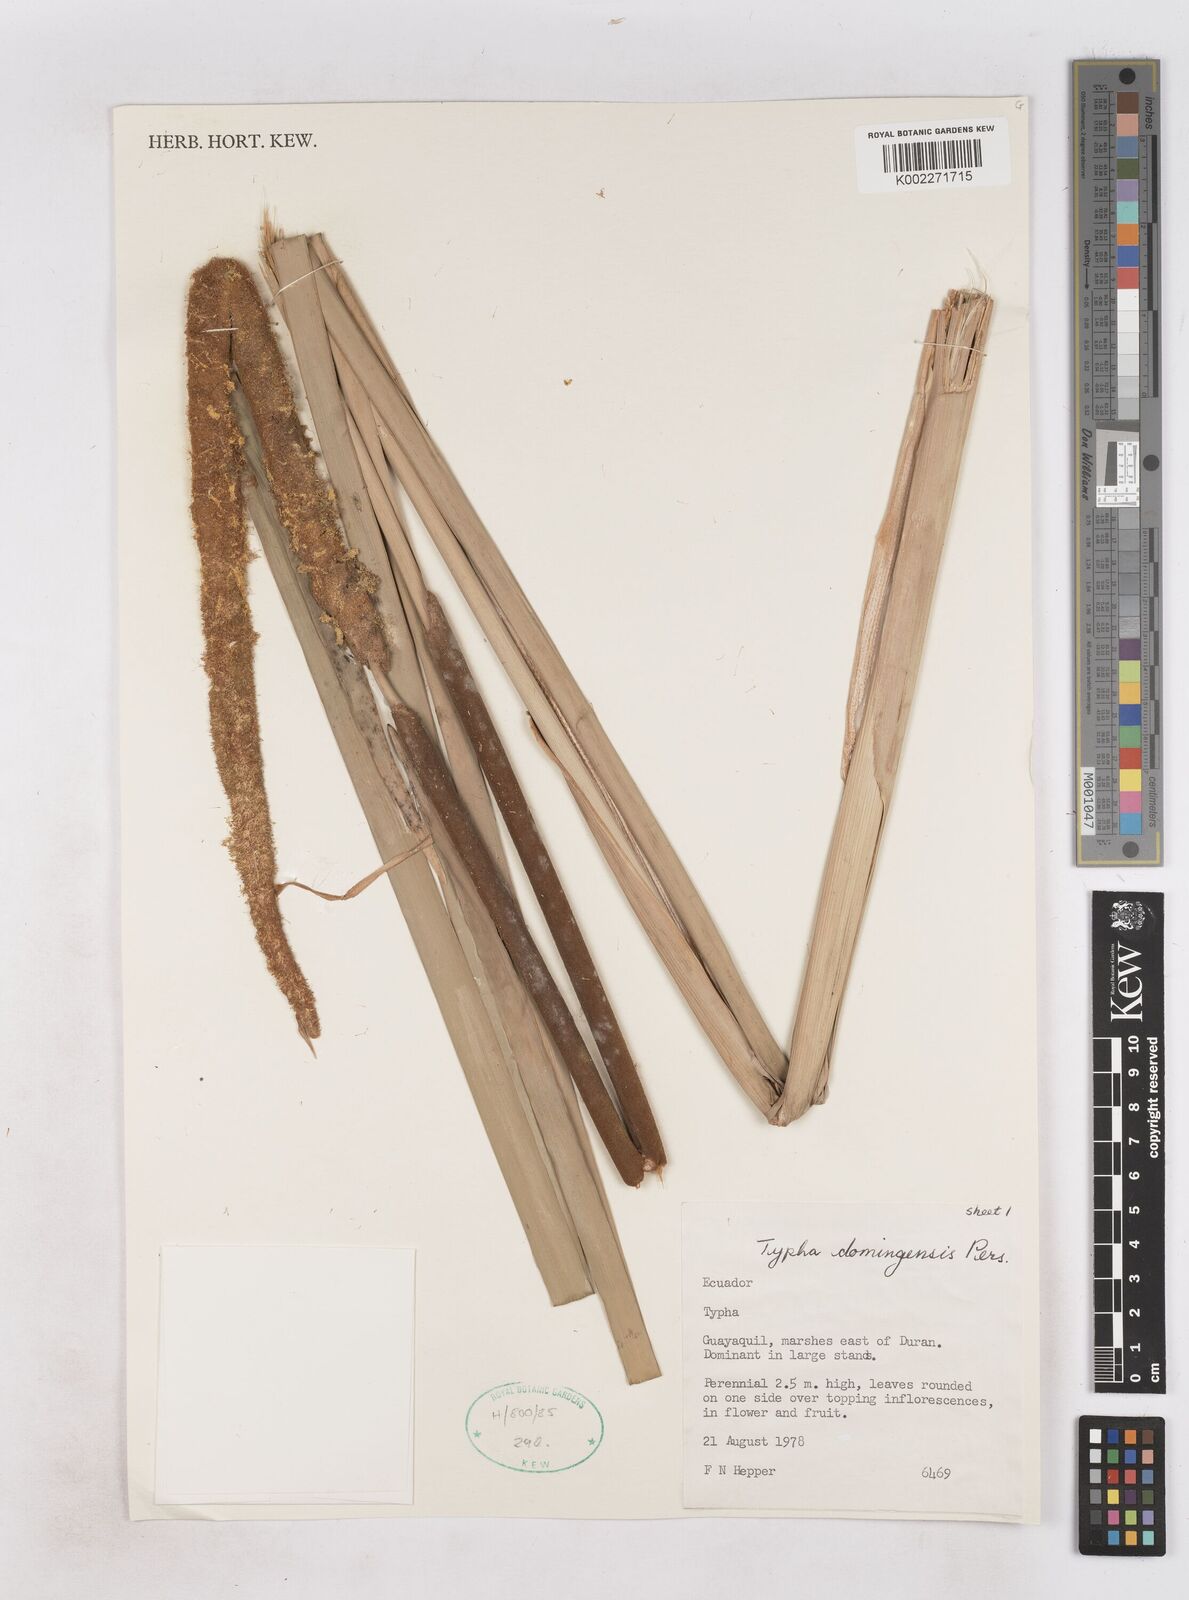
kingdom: Plantae
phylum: Tracheophyta
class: Liliopsida
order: Poales
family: Typhaceae
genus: Typha
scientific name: Typha domingensis
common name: Southern cattail
